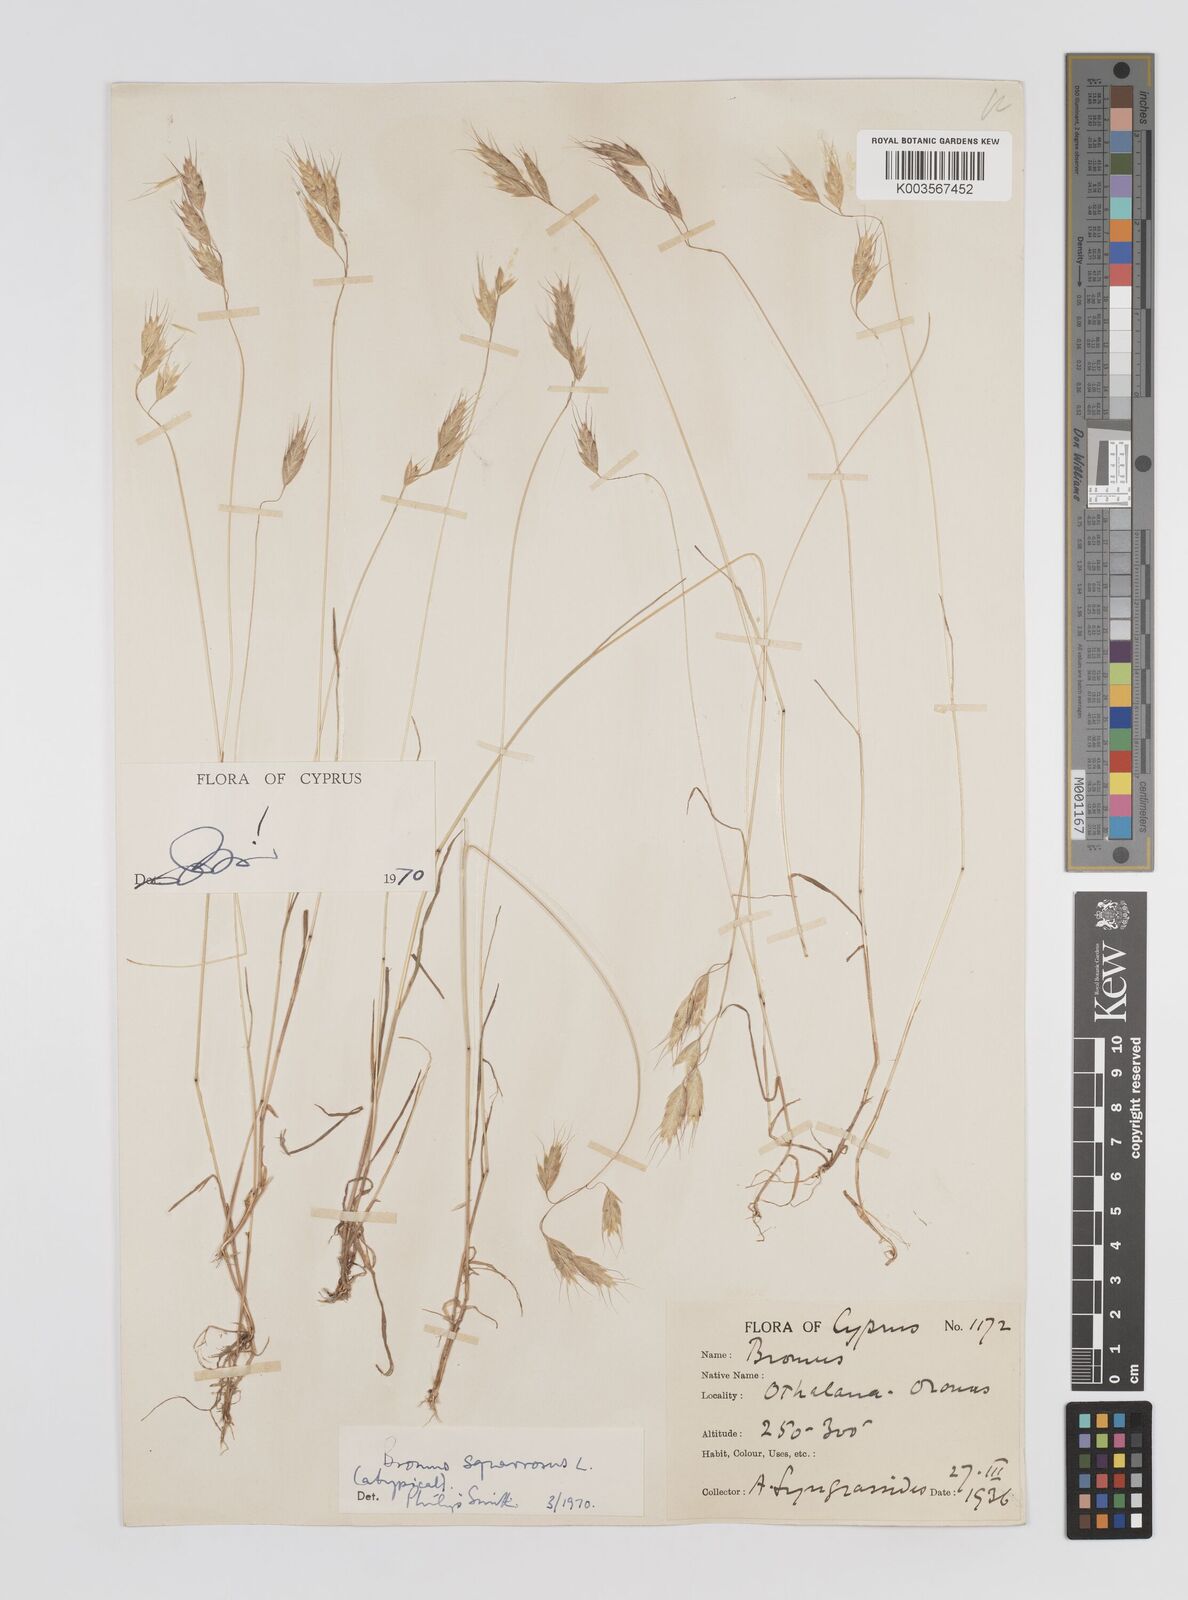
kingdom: Plantae
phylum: Tracheophyta
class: Liliopsida
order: Poales
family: Poaceae
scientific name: Poaceae
